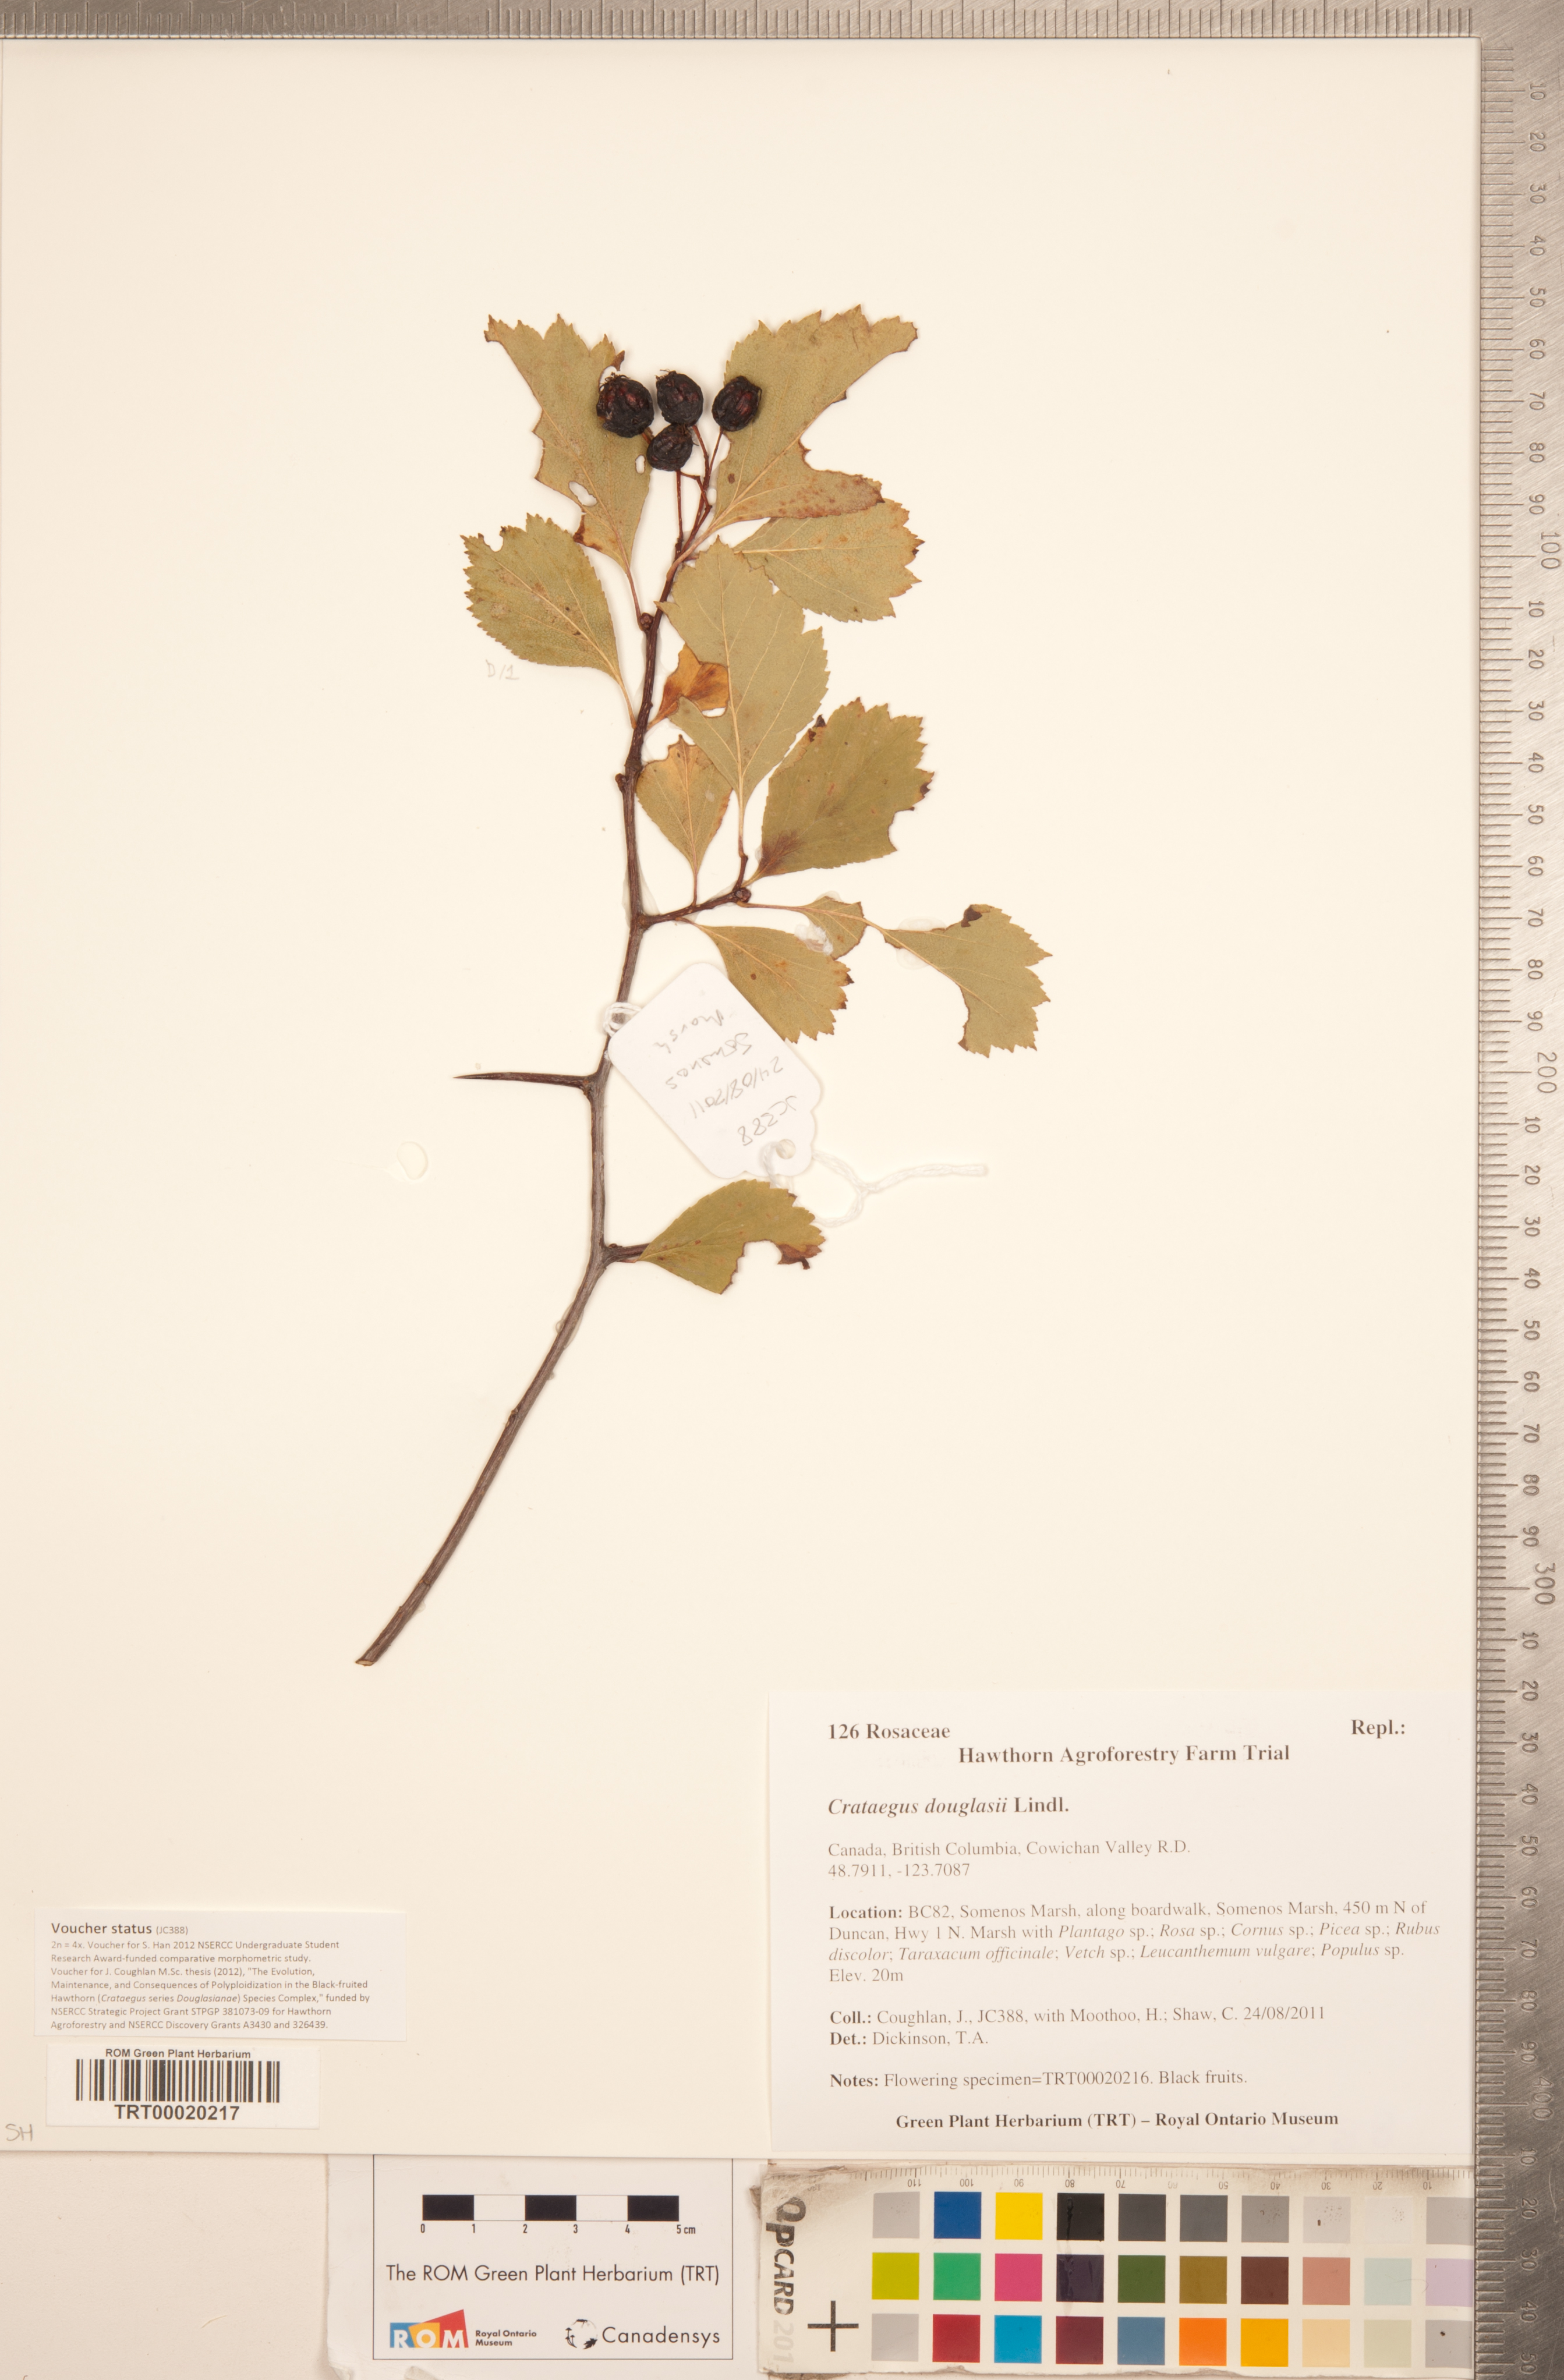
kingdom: Plantae
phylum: Tracheophyta
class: Magnoliopsida
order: Rosales
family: Rosaceae
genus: Crataegus
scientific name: Crataegus douglasii
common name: Black hawthorn
